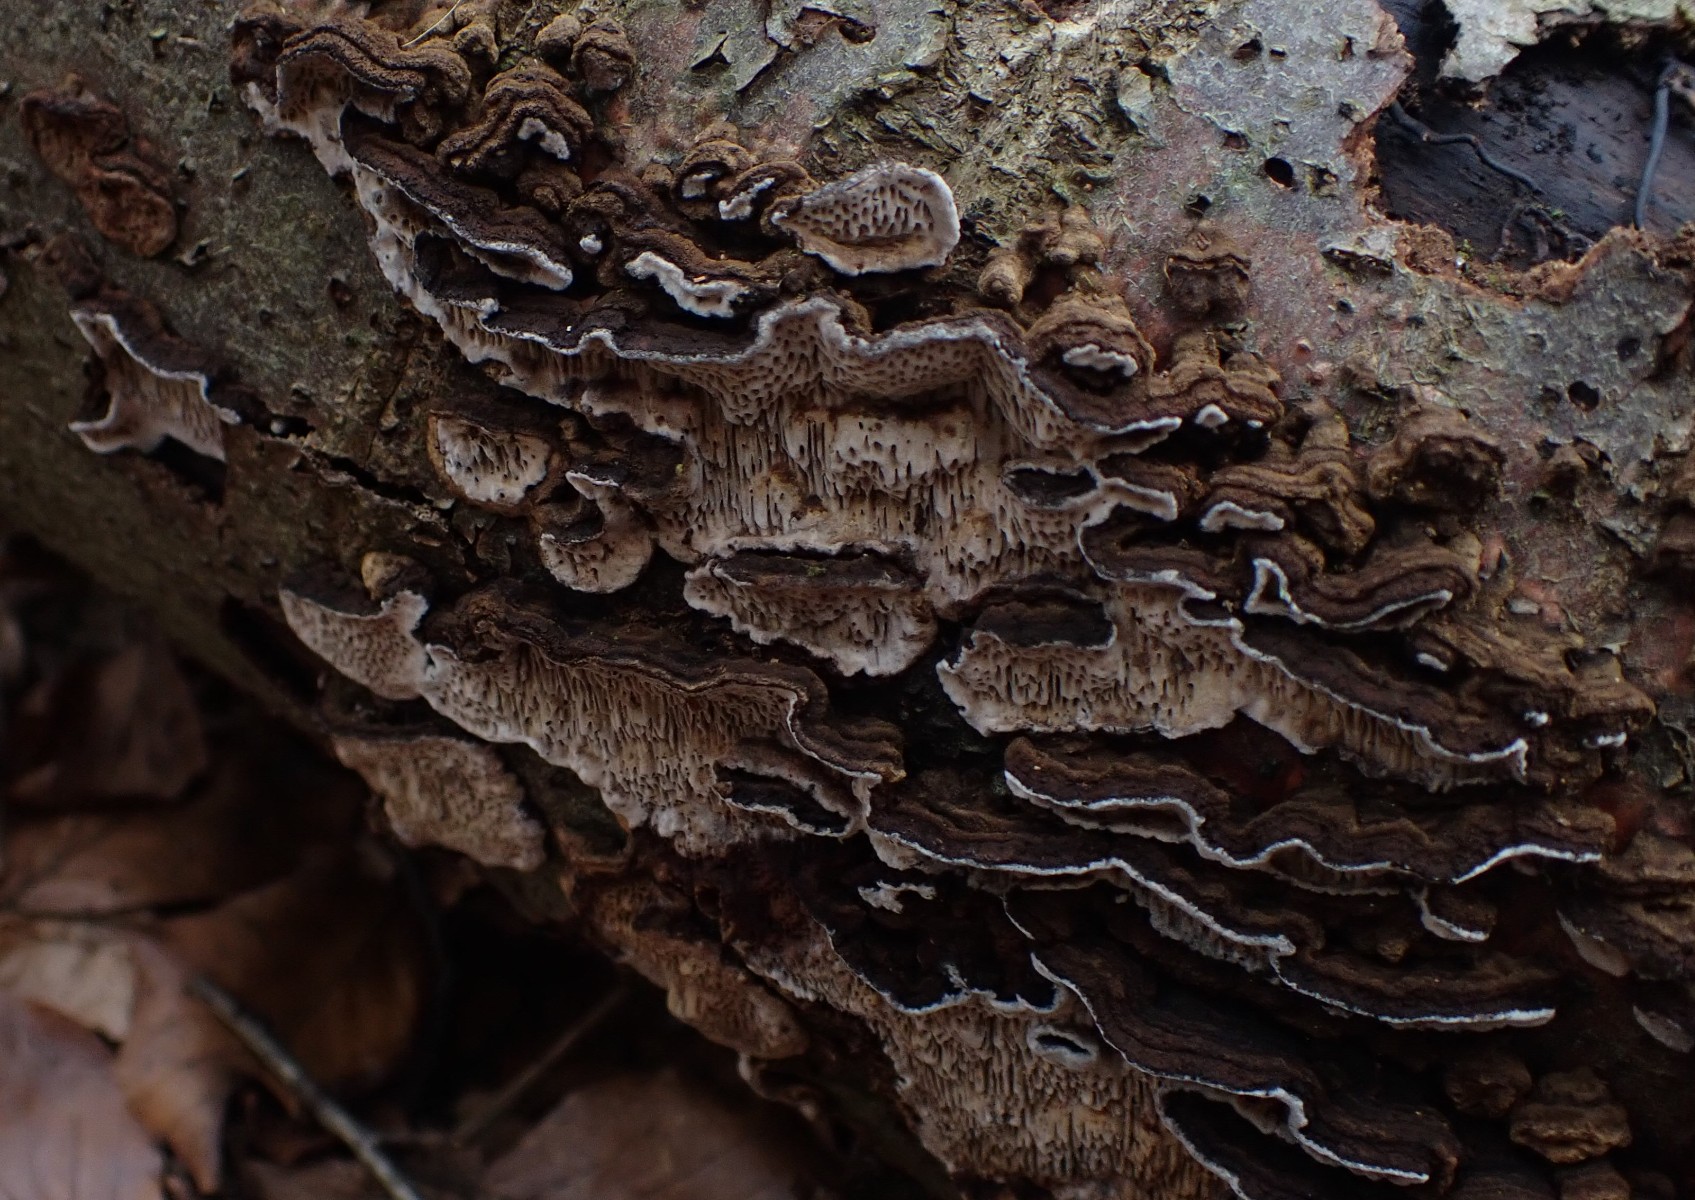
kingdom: Fungi
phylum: Basidiomycota
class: Agaricomycetes
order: Polyporales
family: Polyporaceae
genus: Podofomes
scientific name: Podofomes mollis
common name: blød begporesvamp
